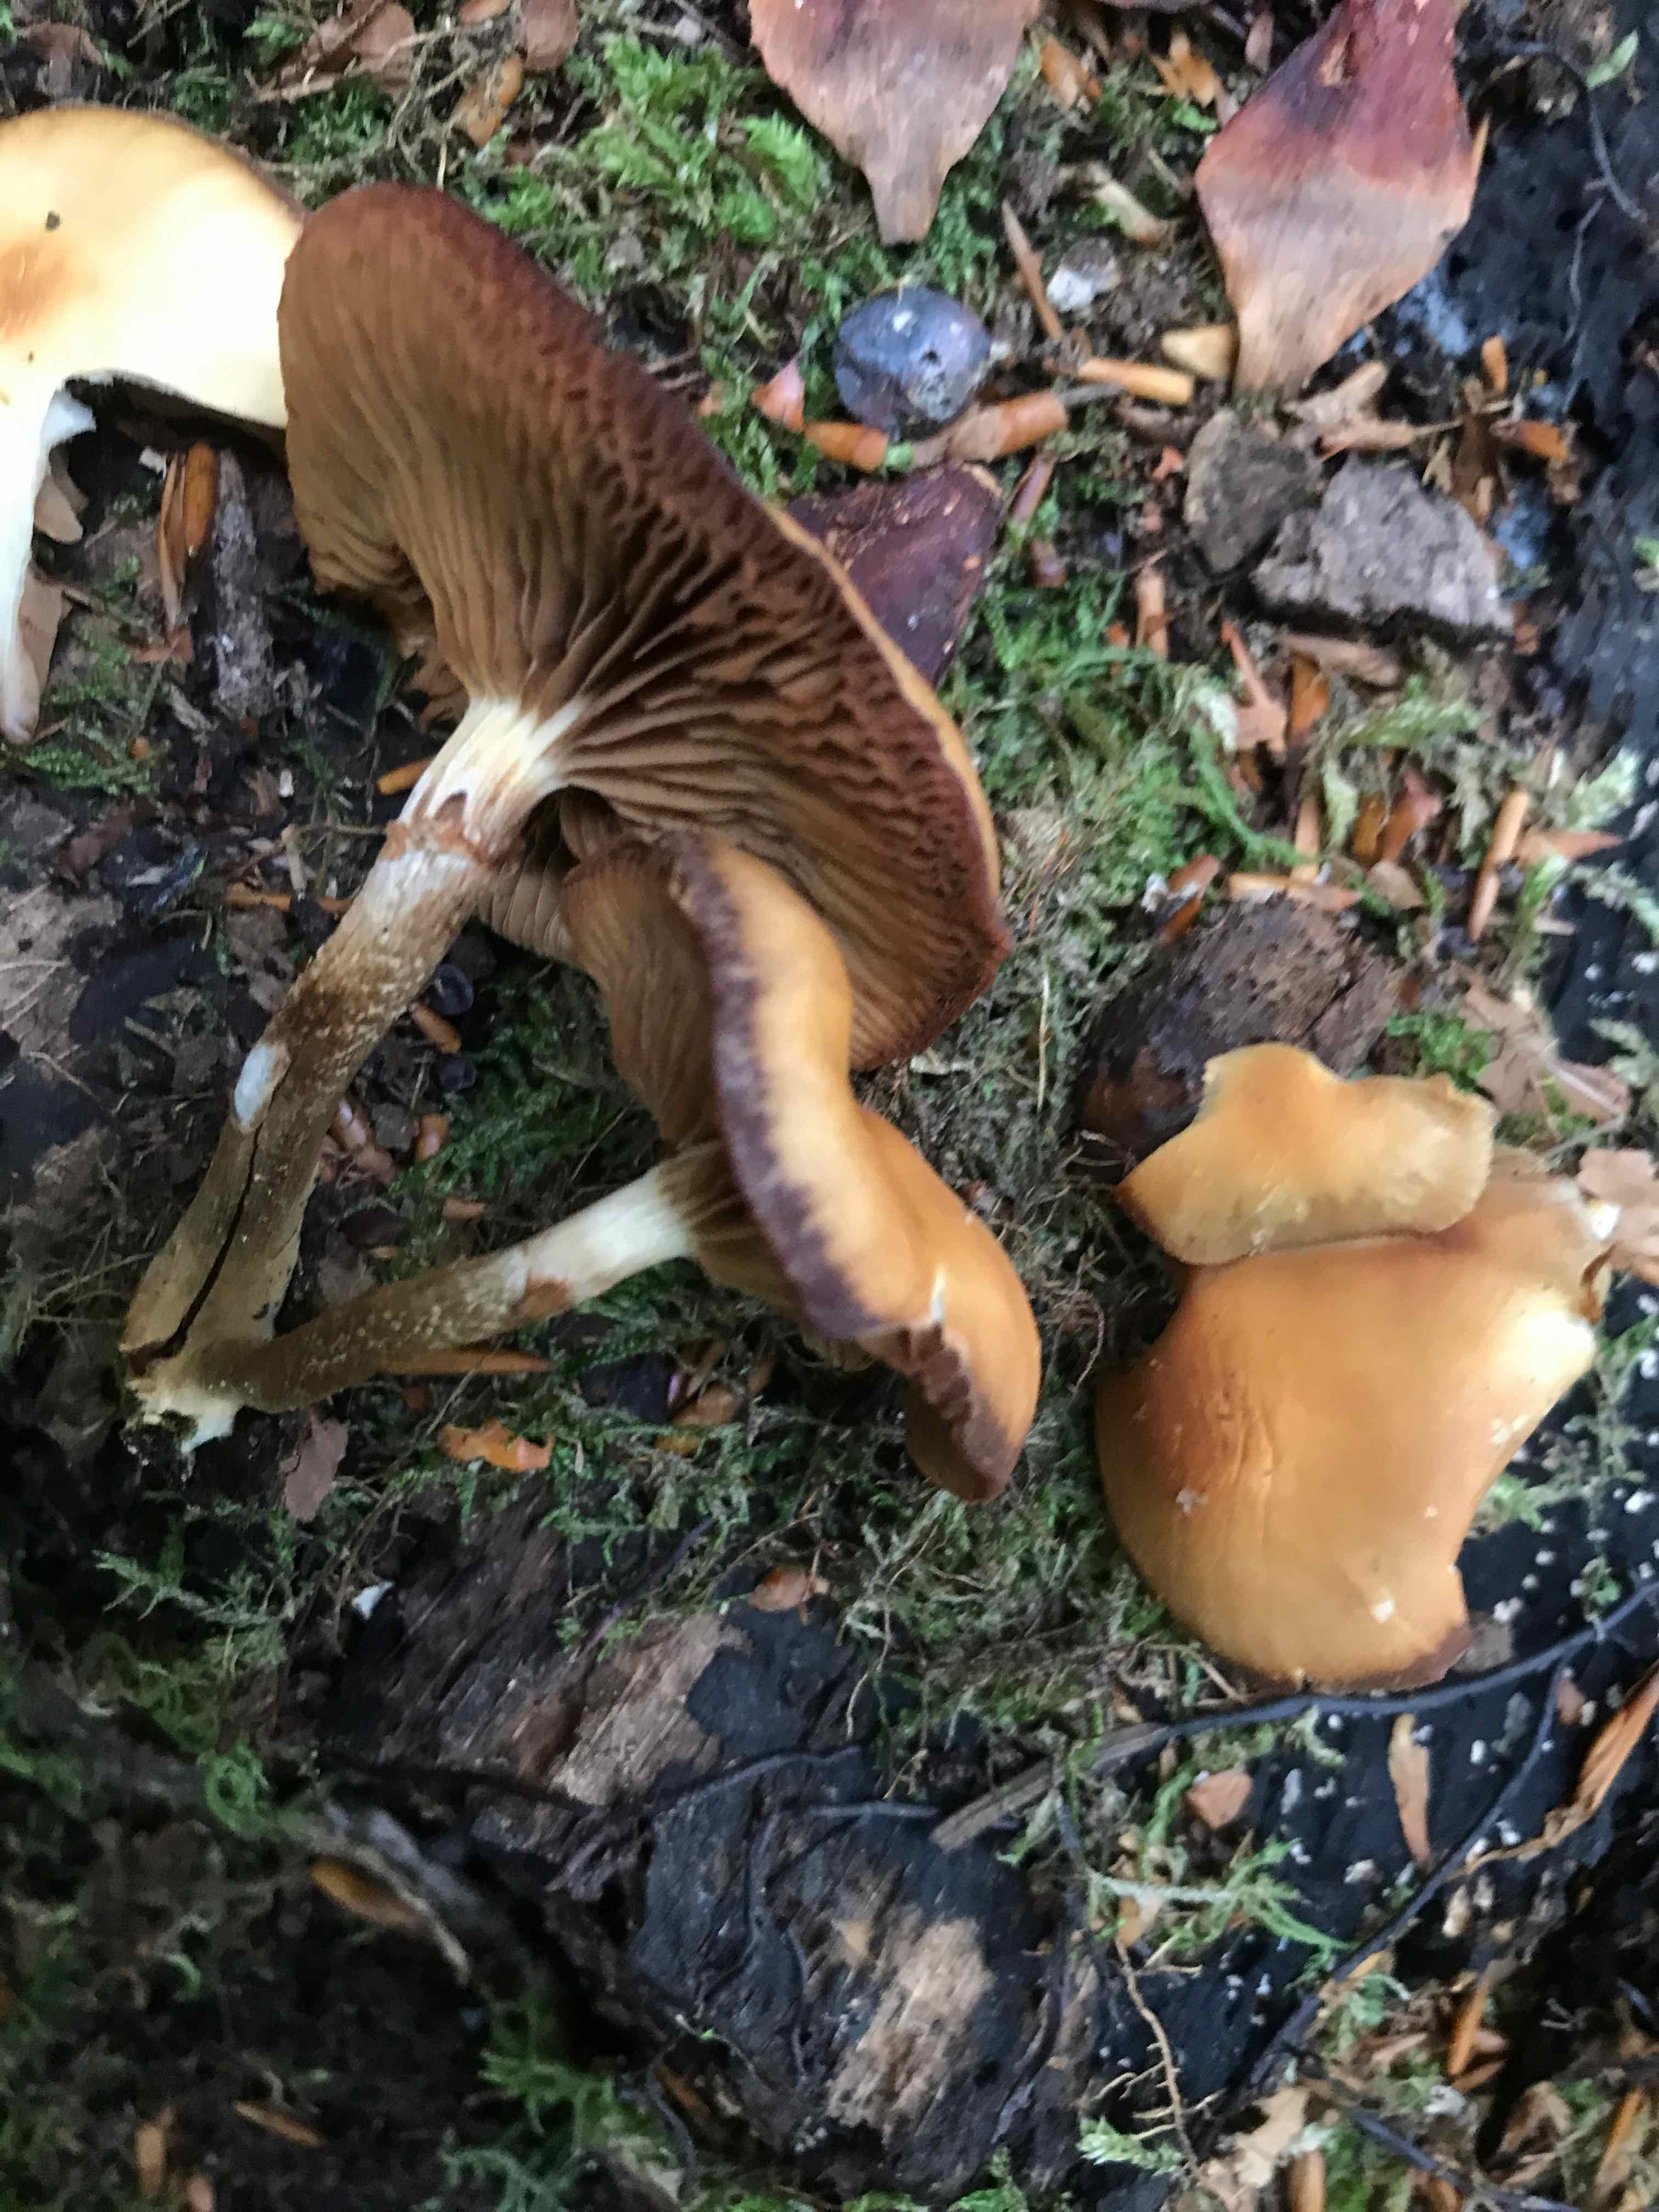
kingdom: Fungi
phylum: Basidiomycota
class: Agaricomycetes
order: Agaricales
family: Strophariaceae
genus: Kuehneromyces
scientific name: Kuehneromyces mutabilis
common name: foranderlig skælhat
